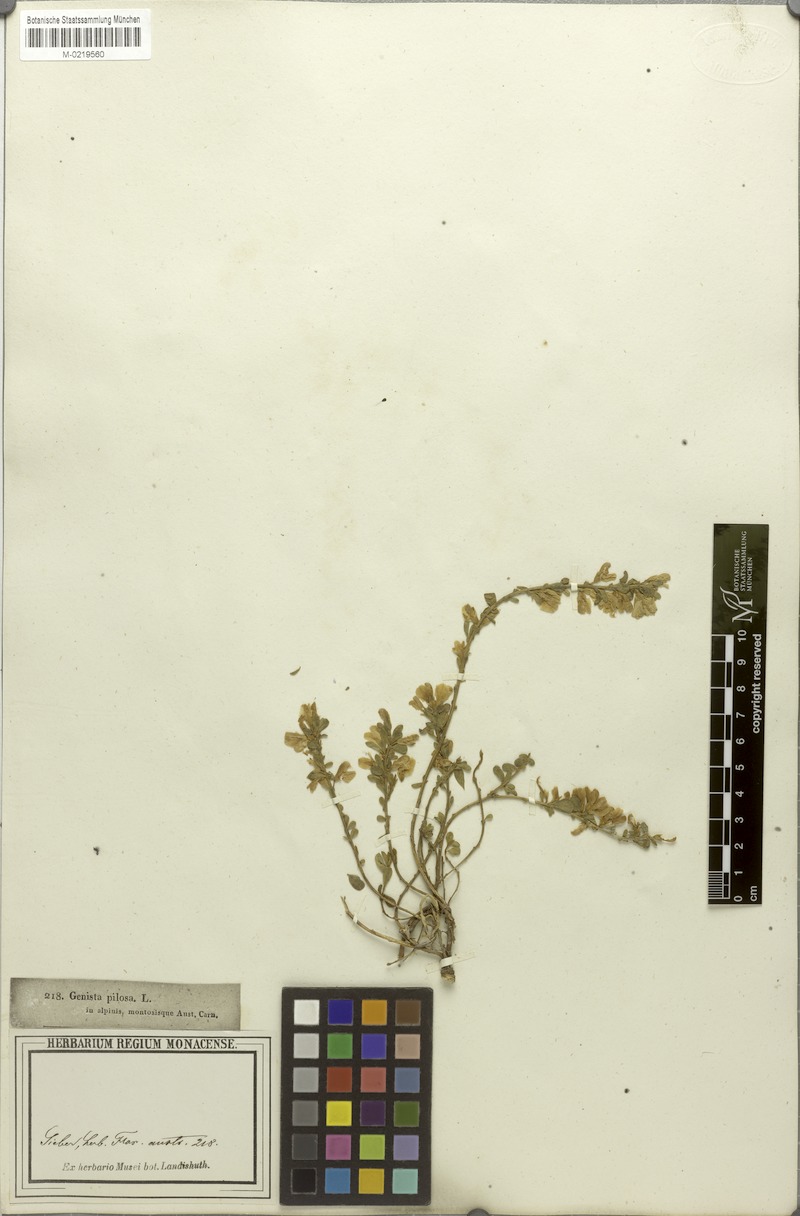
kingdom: Plantae
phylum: Tracheophyta
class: Magnoliopsida
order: Fabales
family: Fabaceae
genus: Genista
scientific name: Genista pilosa
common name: Hairy greenweed
